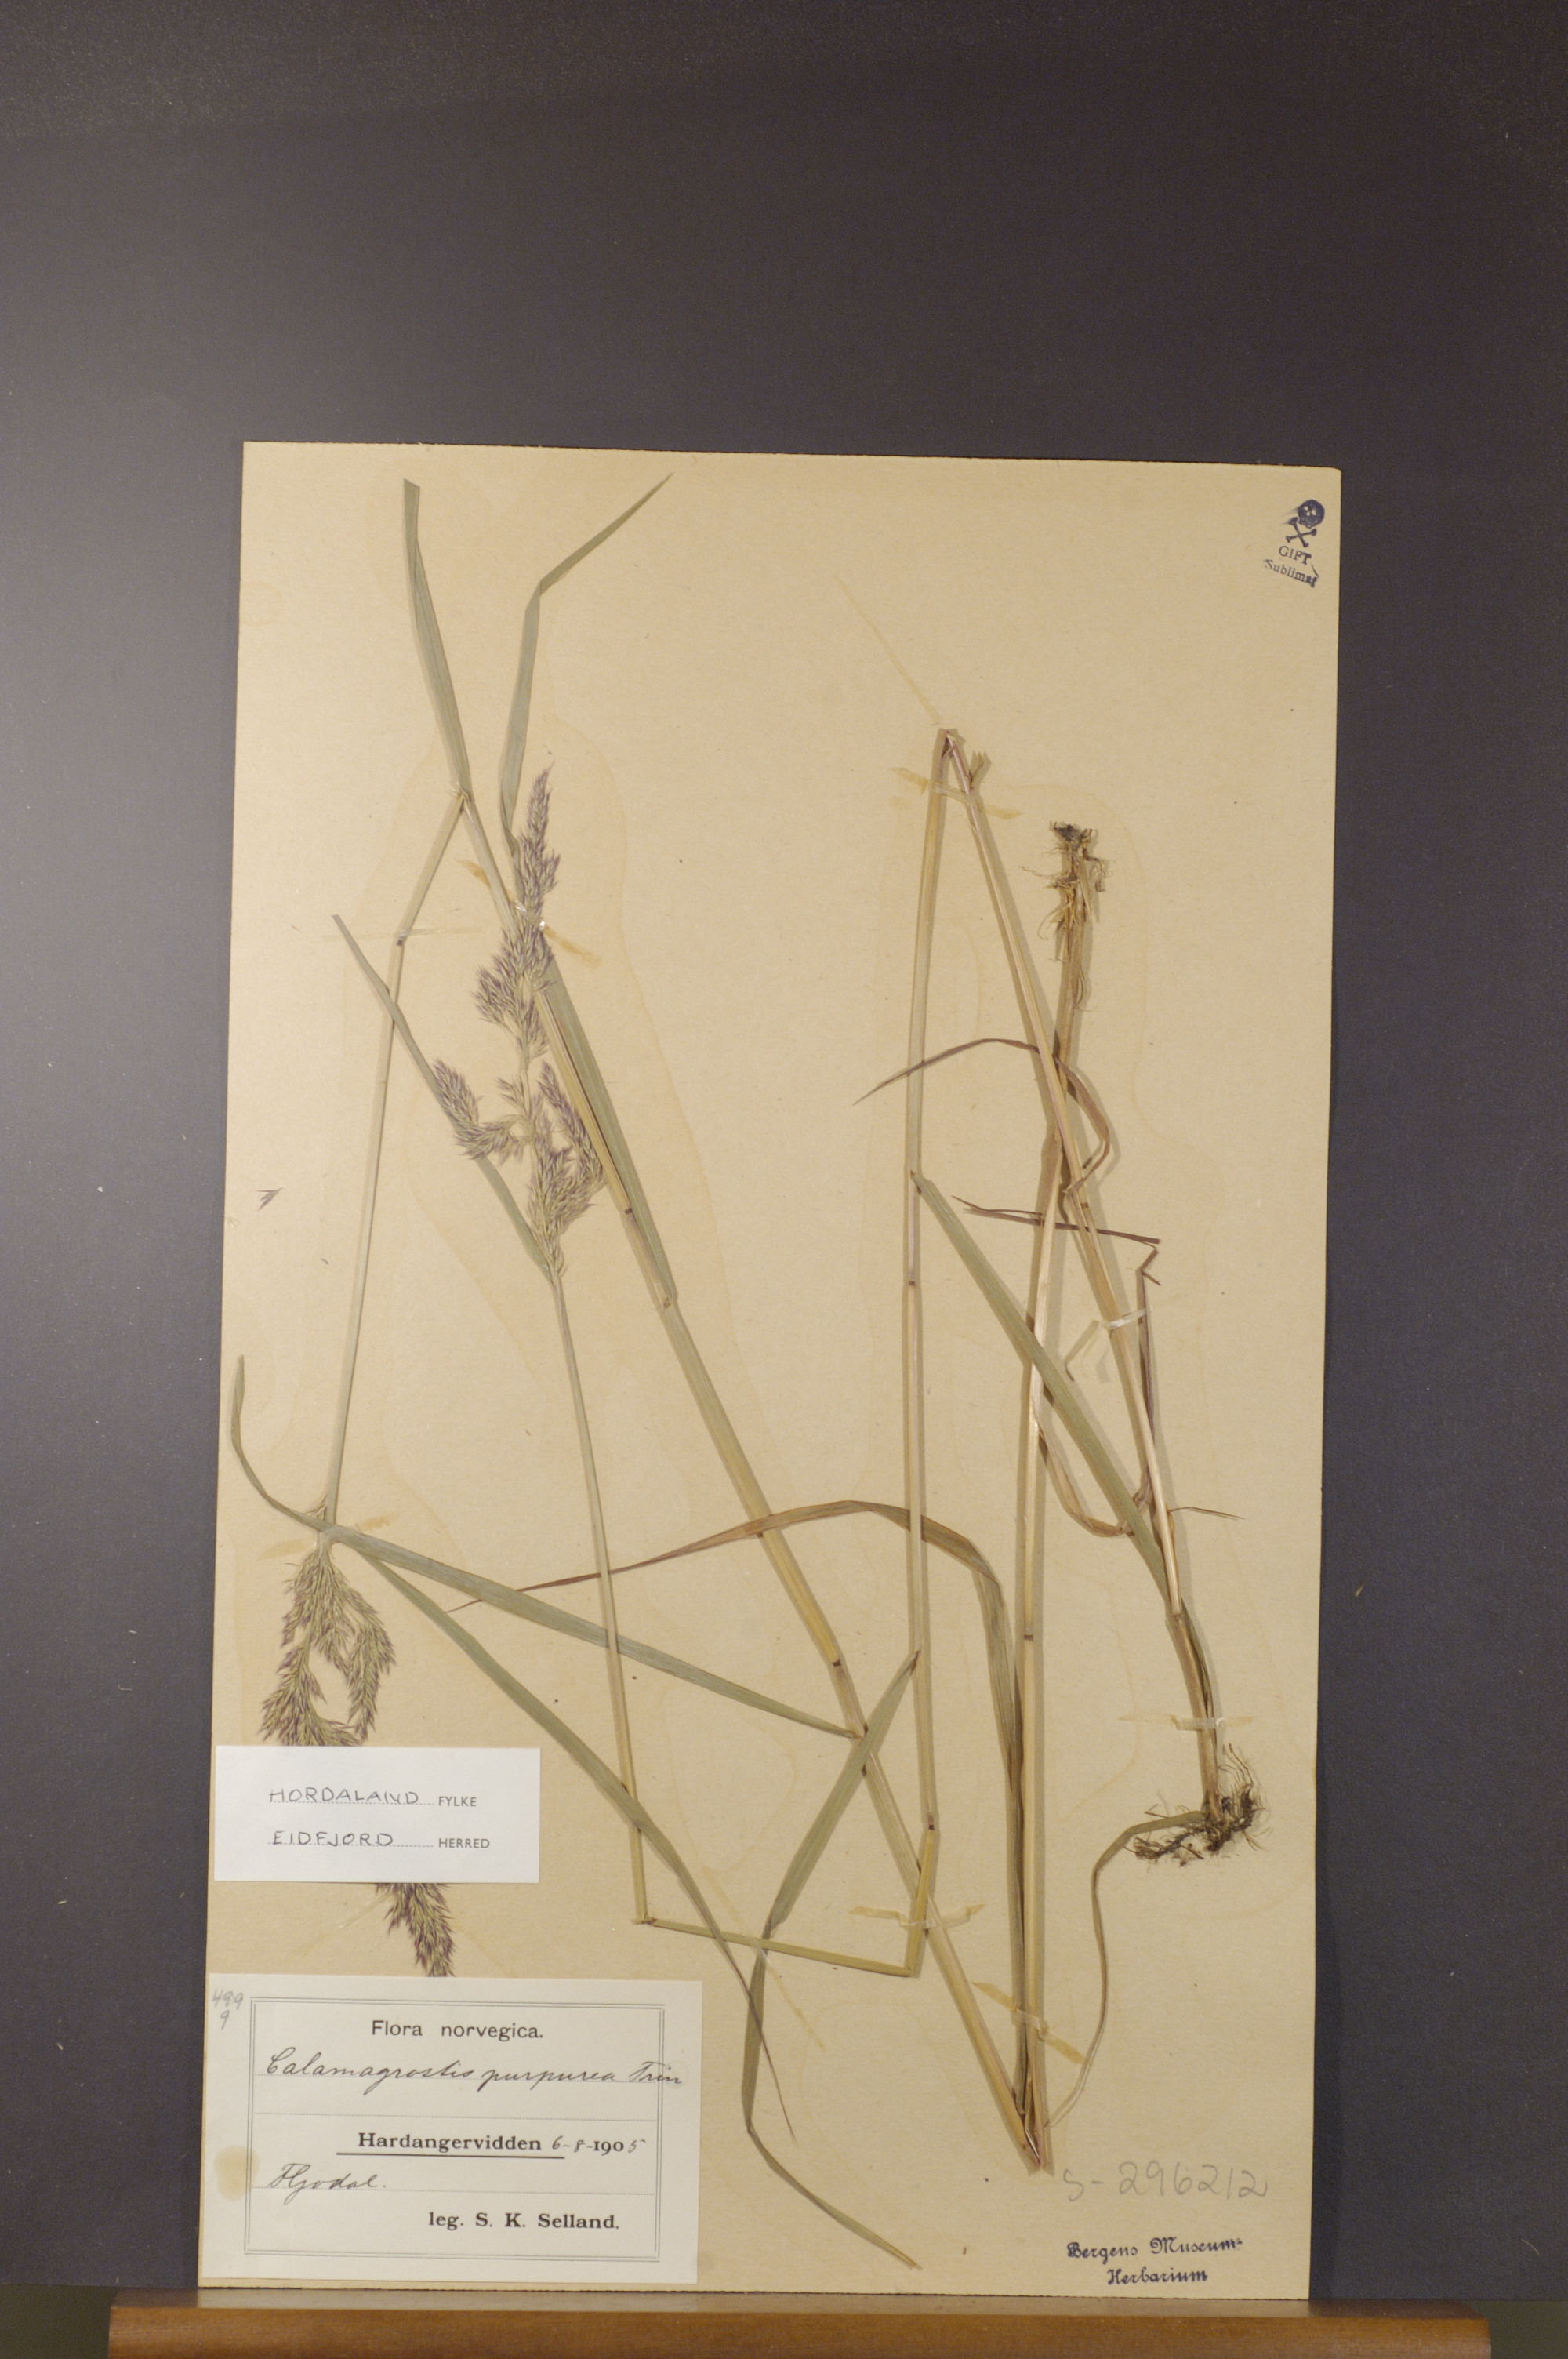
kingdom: Plantae
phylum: Tracheophyta
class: Liliopsida
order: Poales
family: Poaceae
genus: Calamagrostis
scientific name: Calamagrostis purpurea
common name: Scandinavian small-reed
